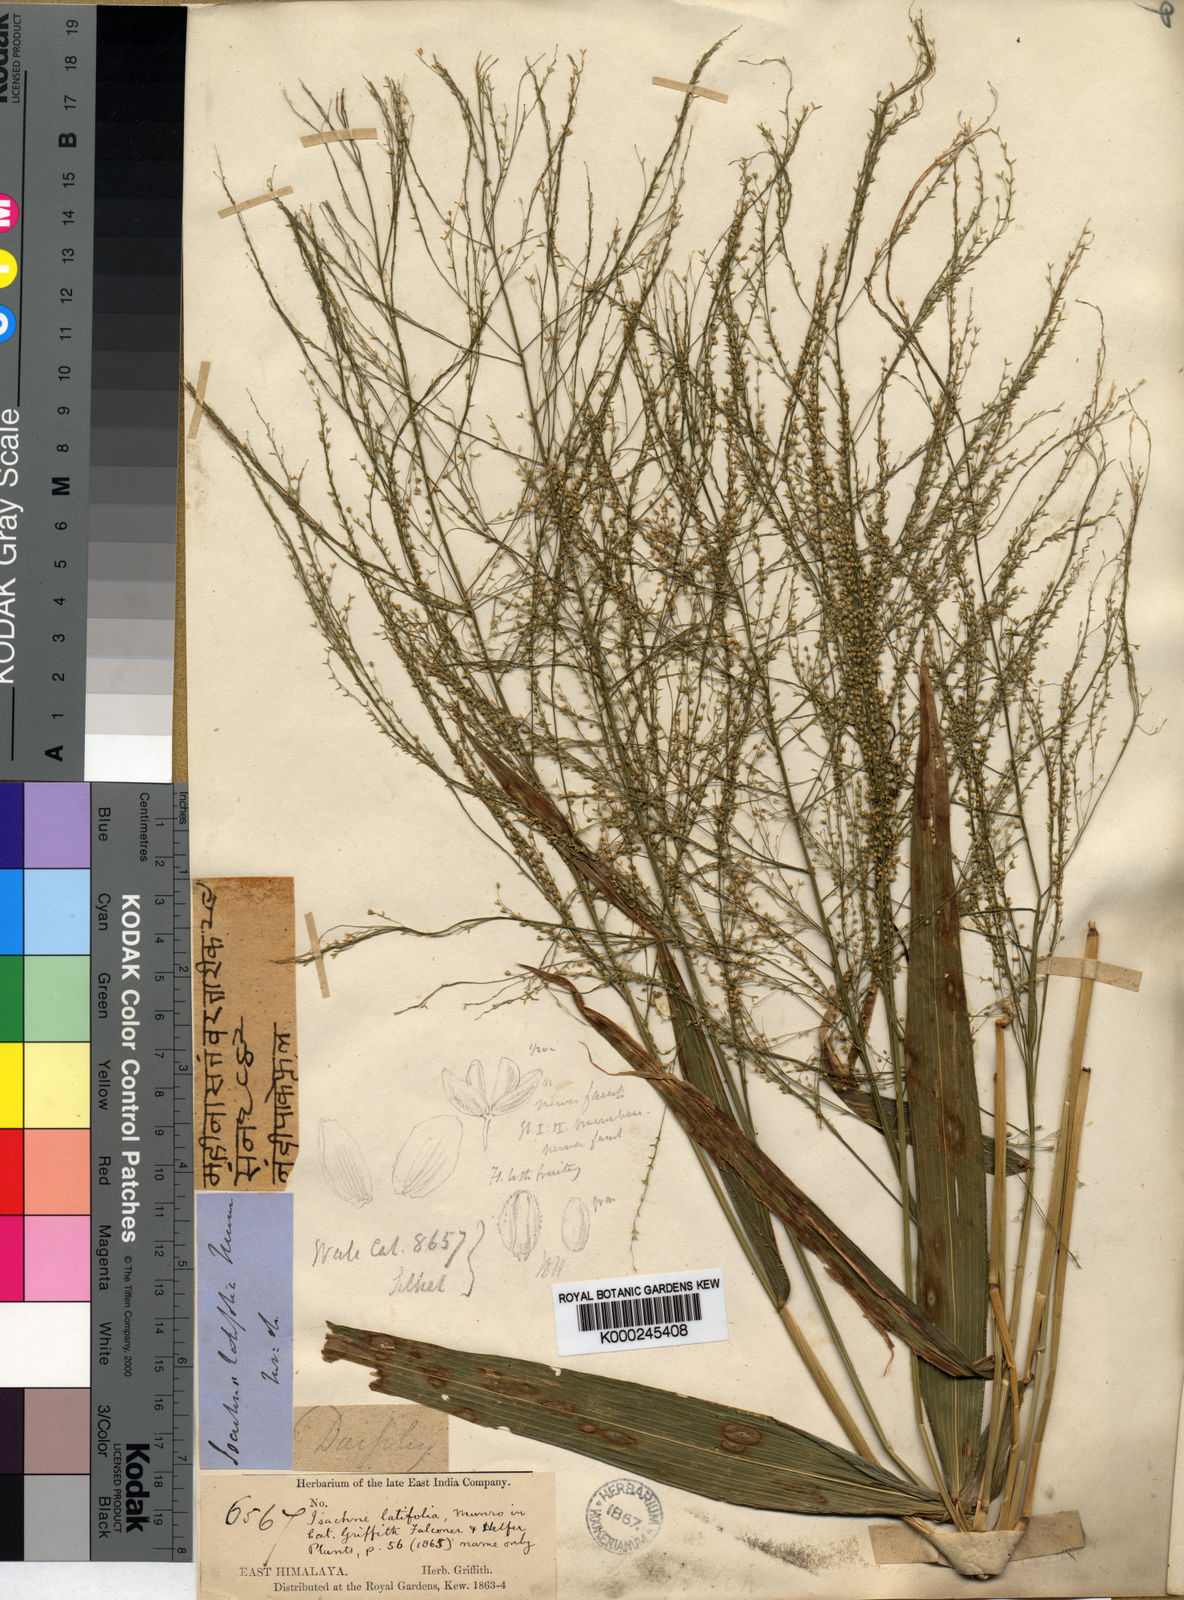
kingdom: Plantae
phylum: Tracheophyta
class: Liliopsida
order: Poales
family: Poaceae
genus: Isachne
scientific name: Isachne albens
